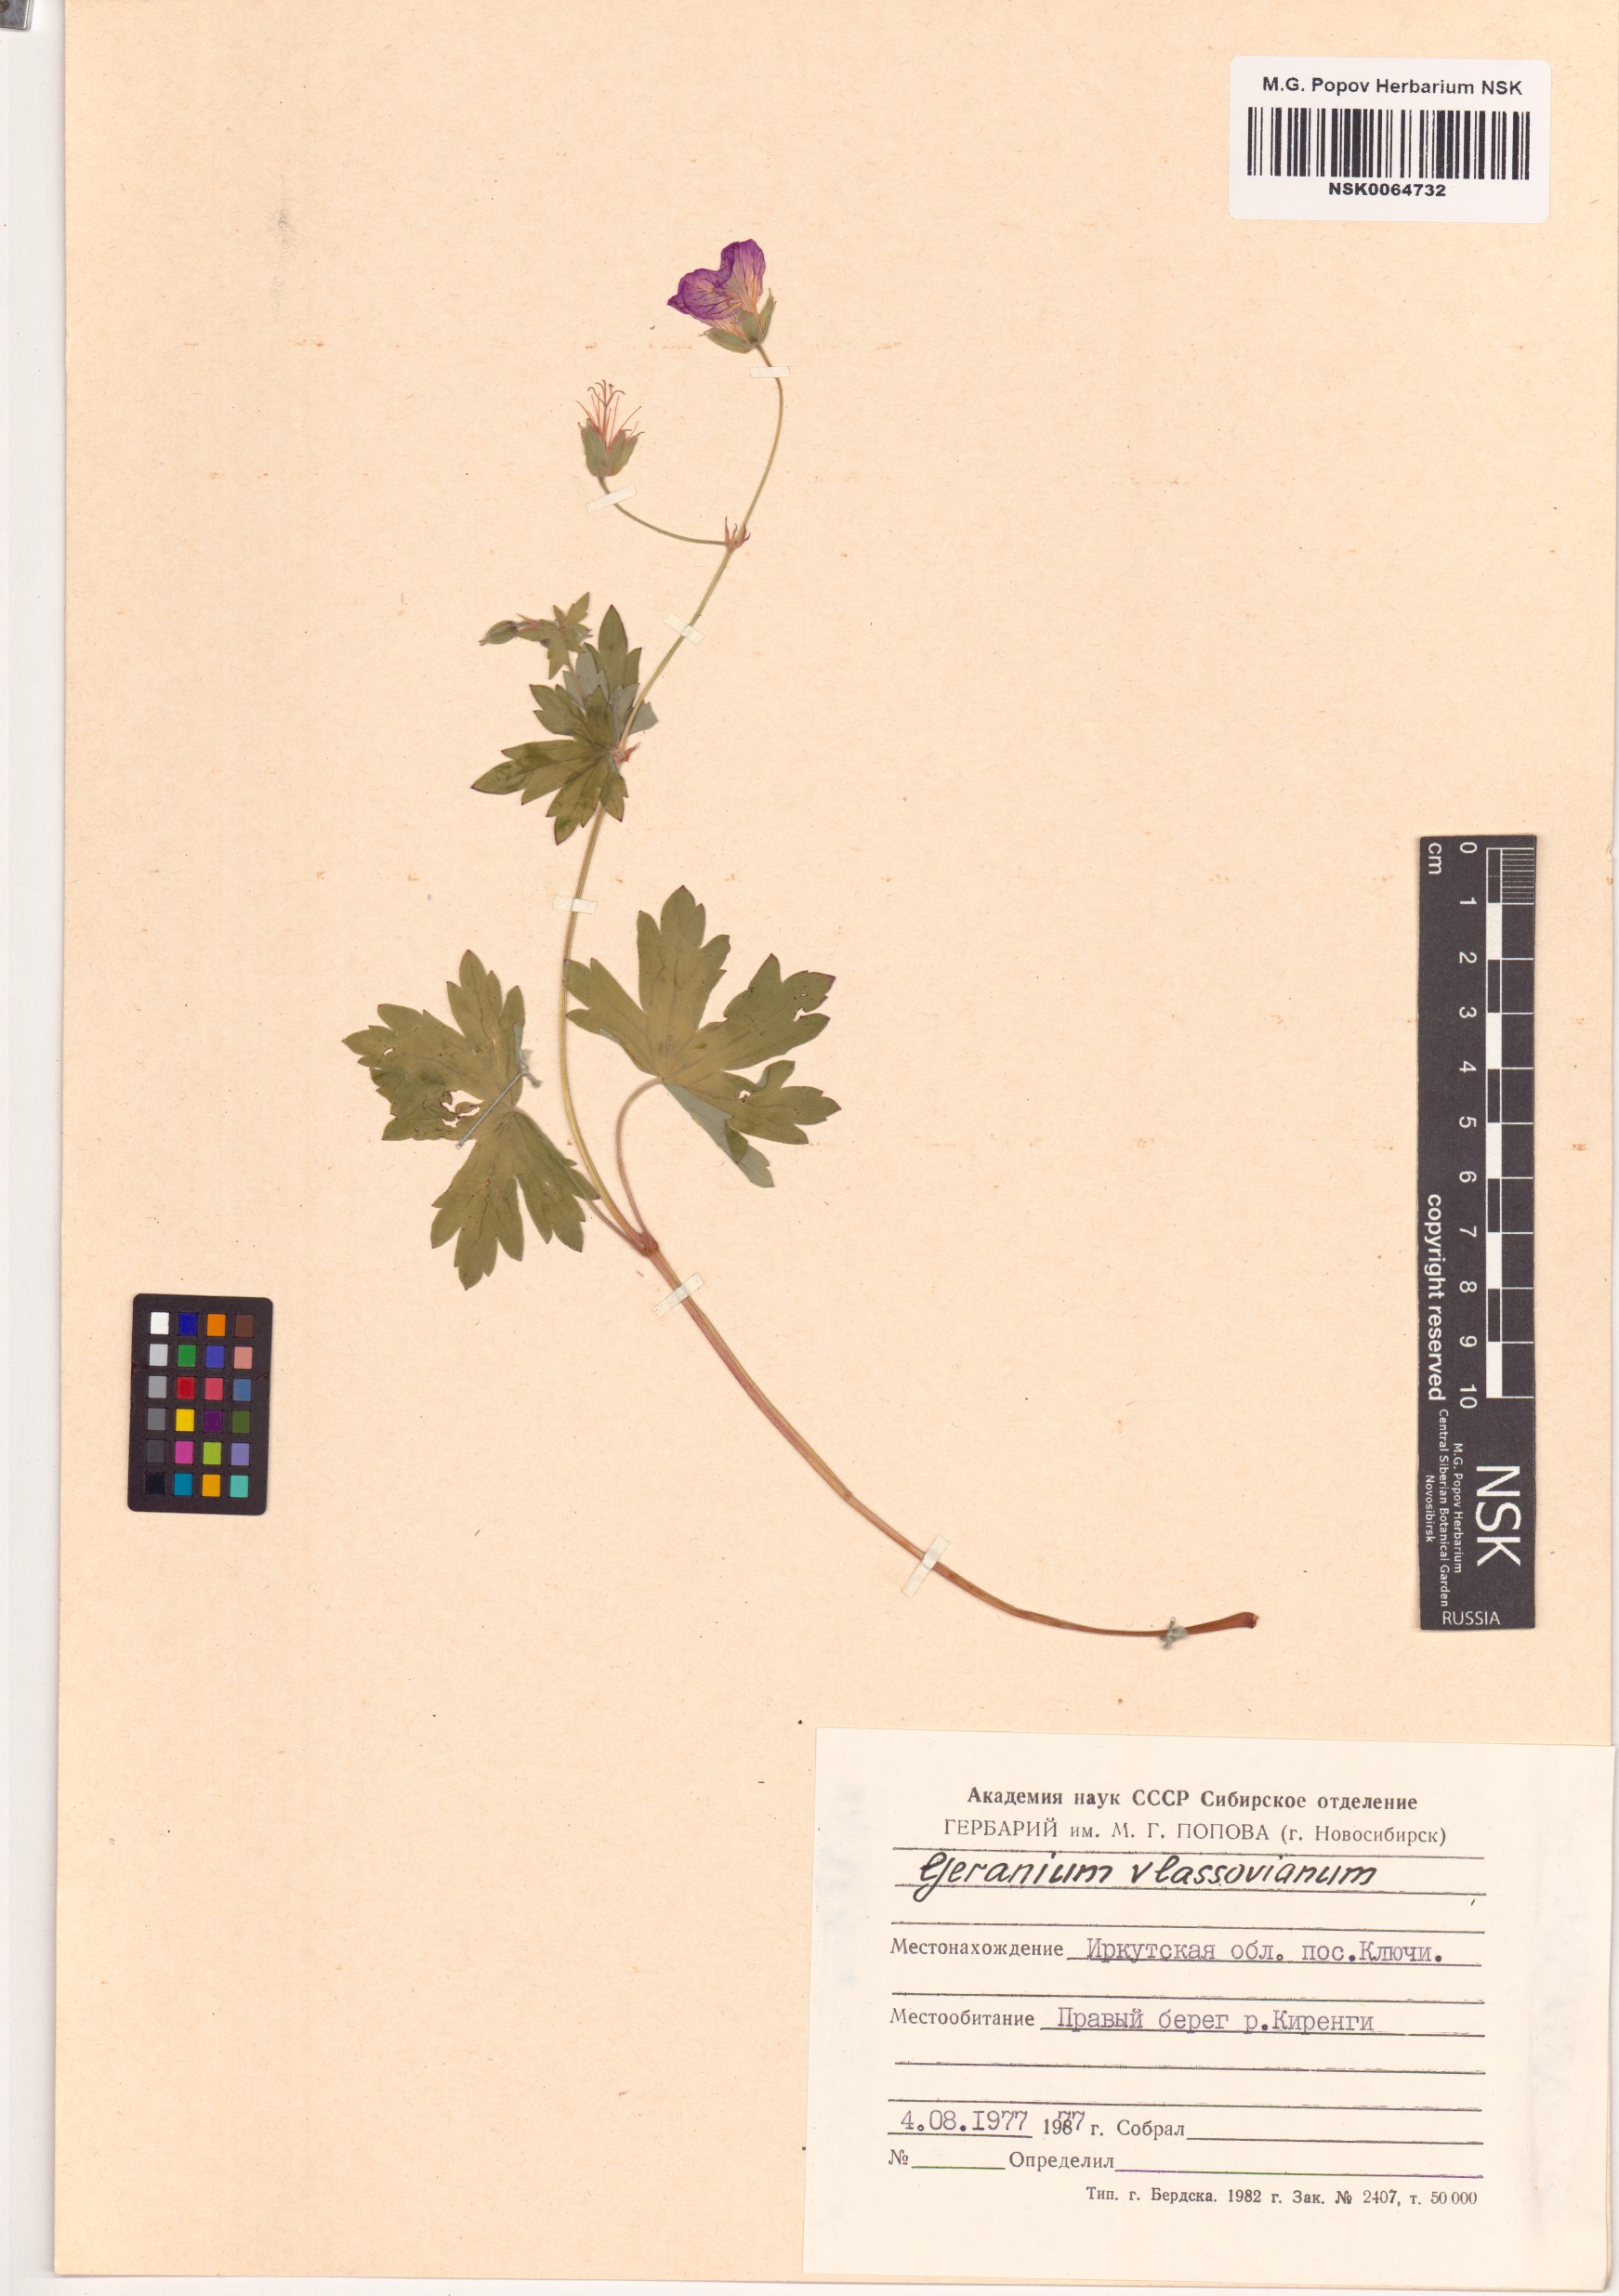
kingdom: Plantae
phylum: Tracheophyta
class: Magnoliopsida
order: Geraniales
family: Geraniaceae
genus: Geranium
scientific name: Geranium wlassovianum
